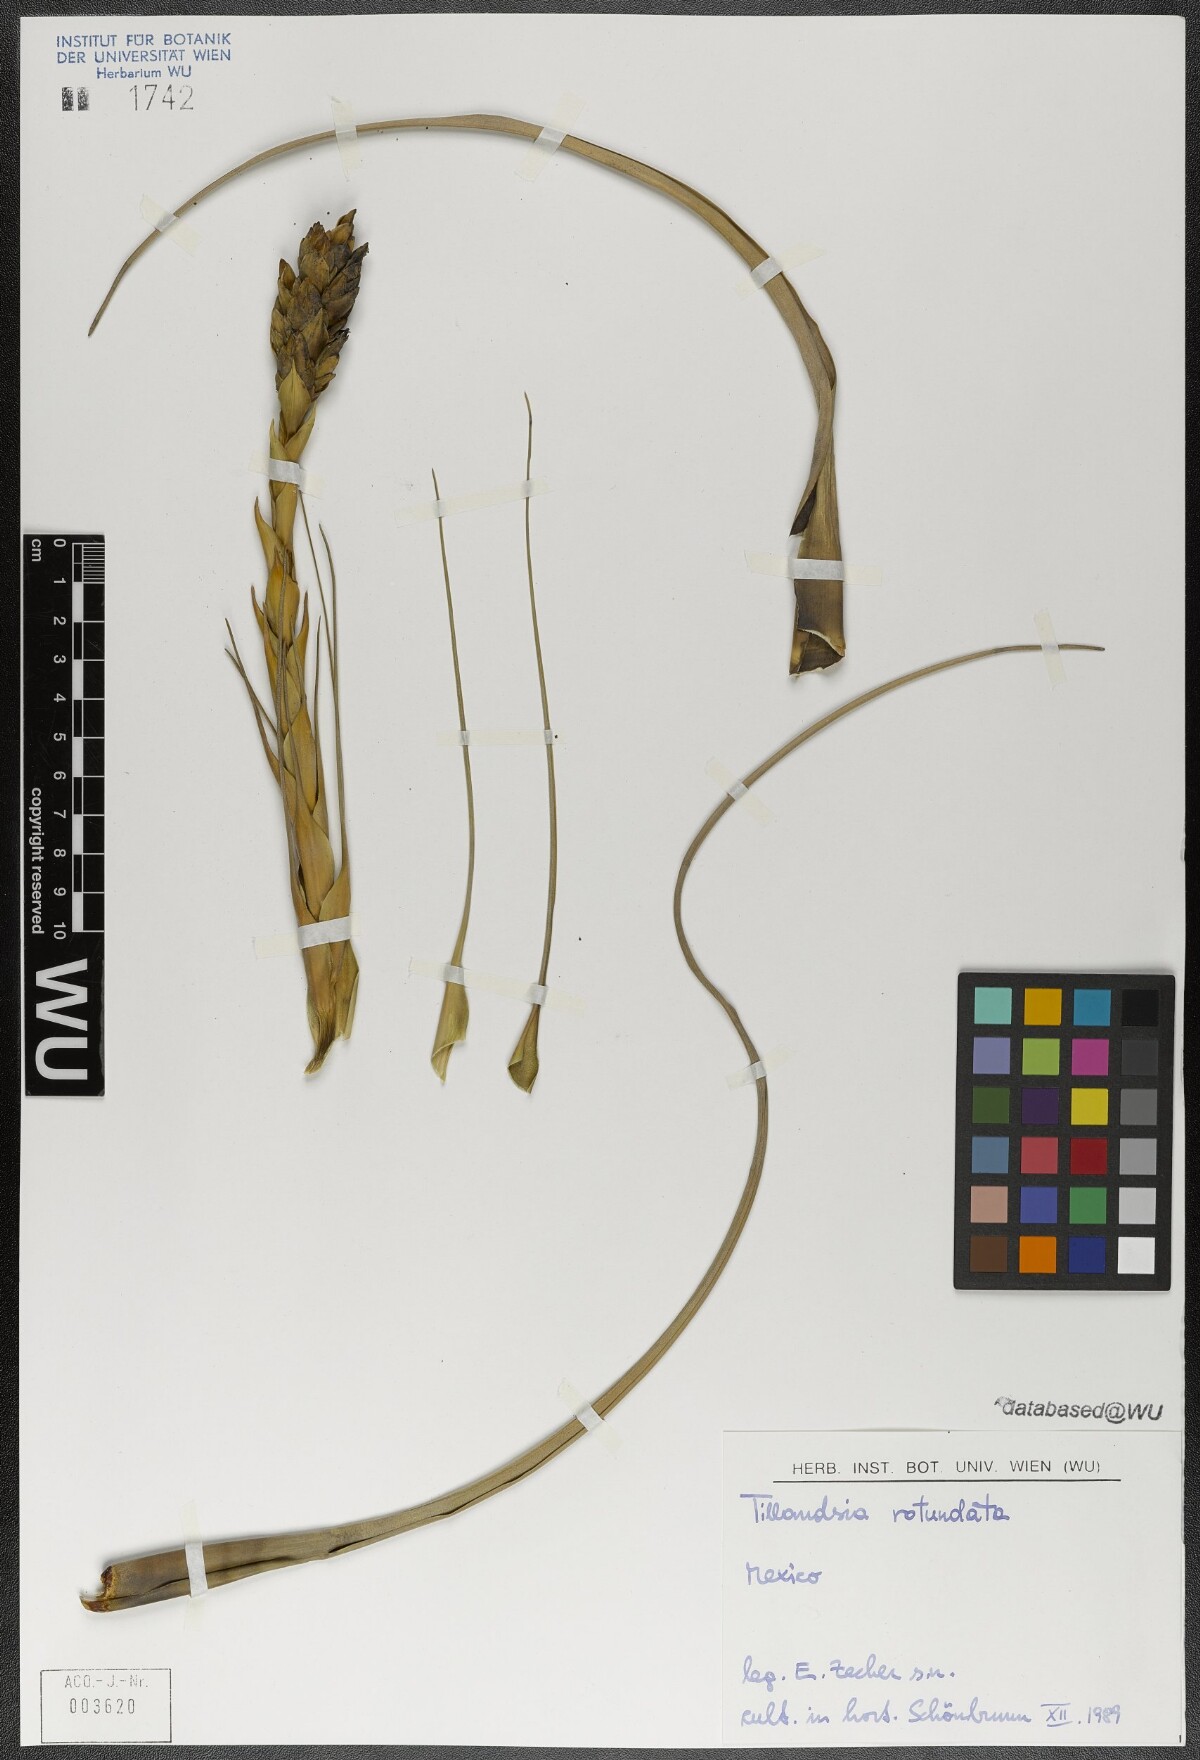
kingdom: Plantae
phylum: Tracheophyta
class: Liliopsida
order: Poales
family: Bromeliaceae
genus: Tillandsia
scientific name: Tillandsia rotundata
